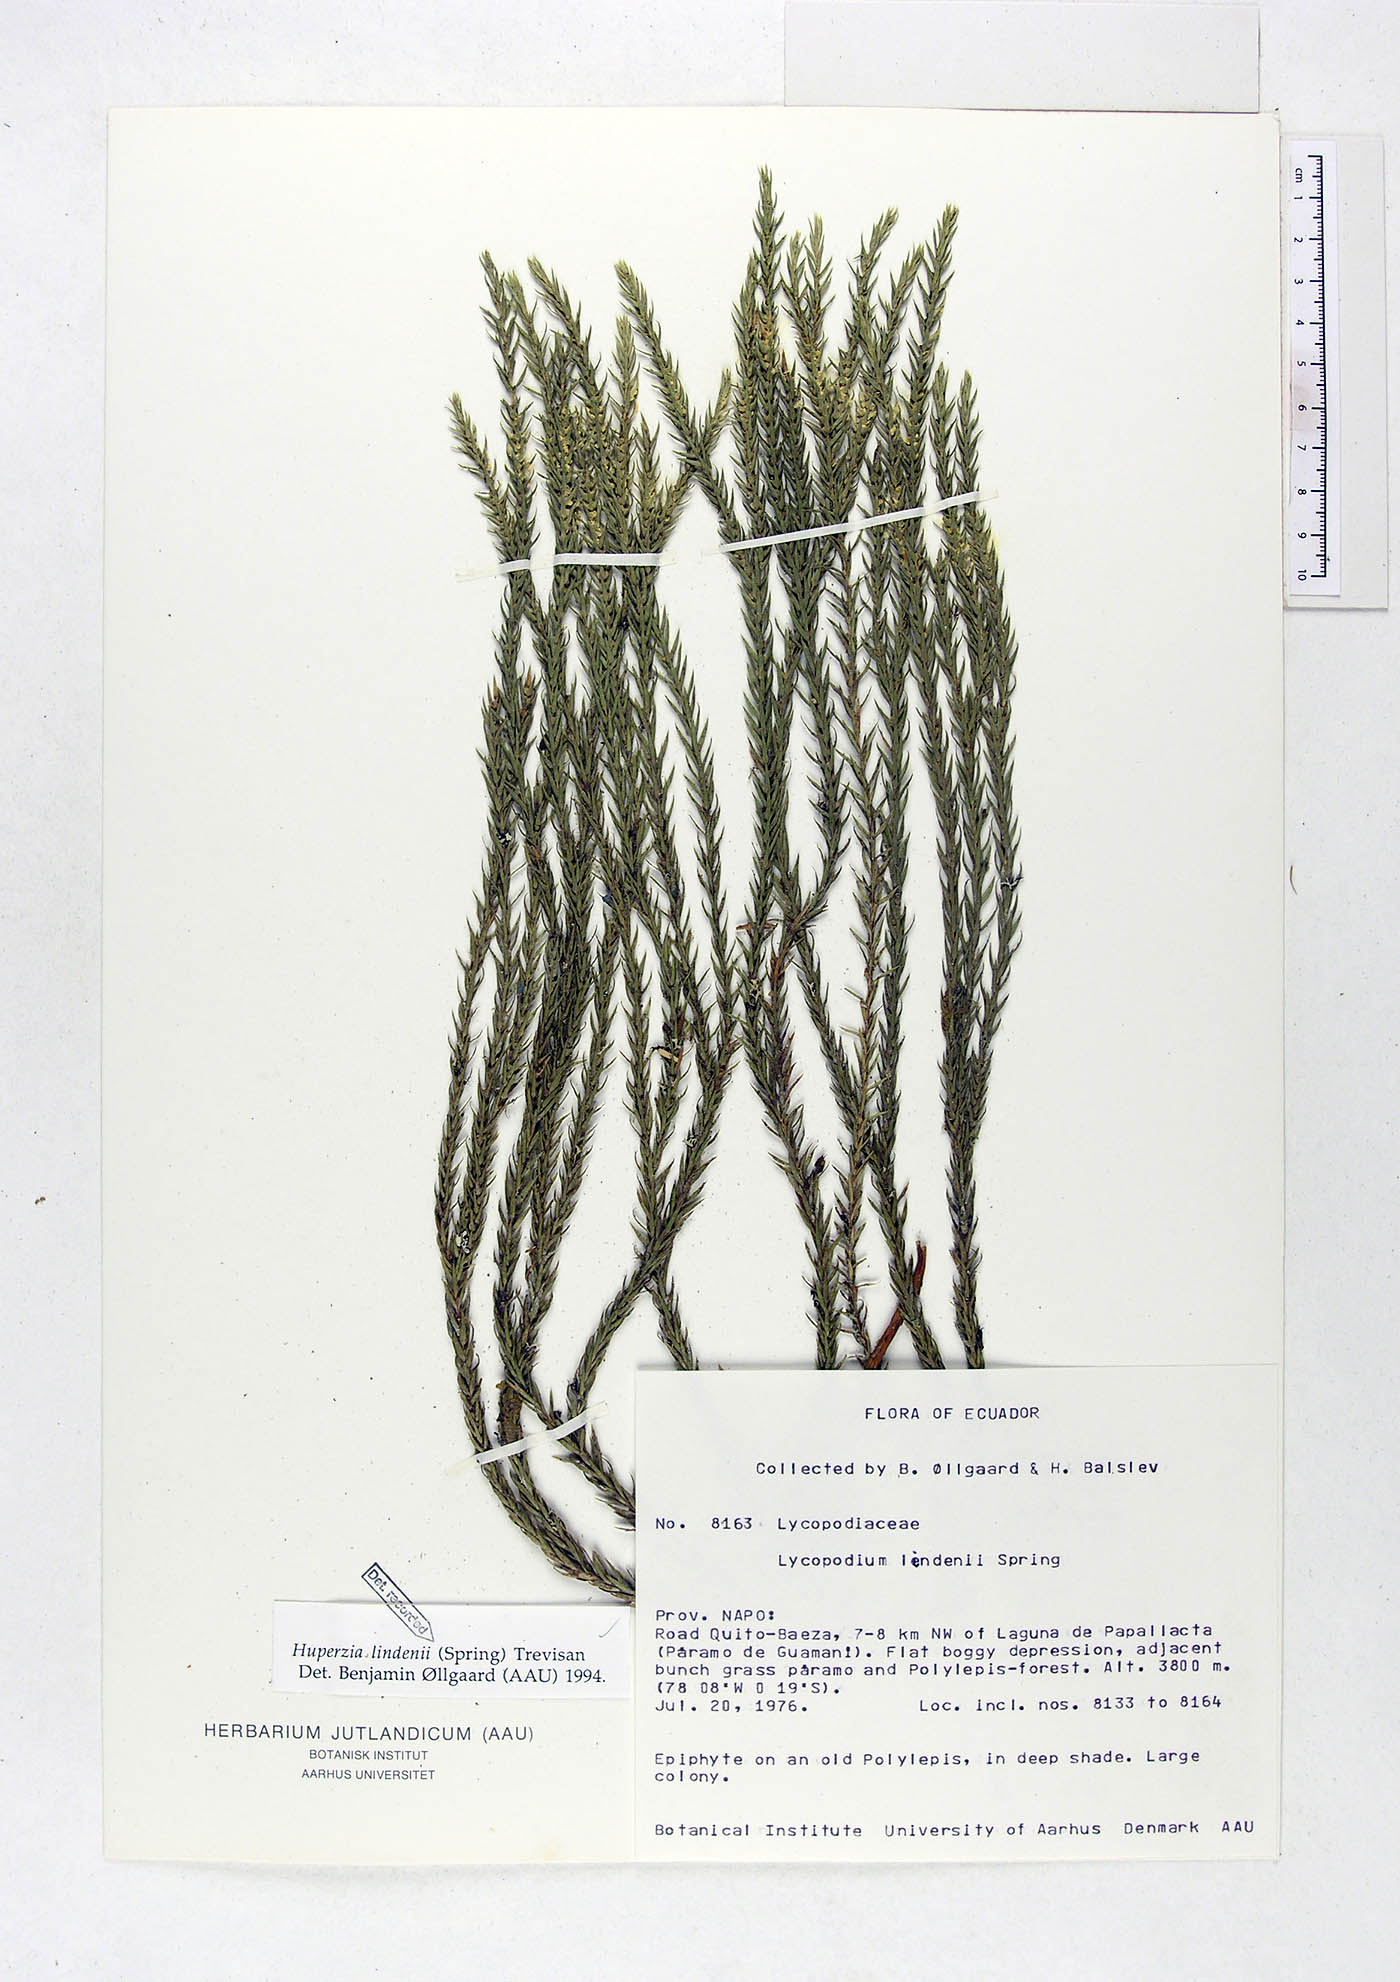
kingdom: Plantae
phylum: Tracheophyta
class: Lycopodiopsida
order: Lycopodiales
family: Lycopodiaceae
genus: Phlegmariurus
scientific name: Phlegmariurus lindenii
